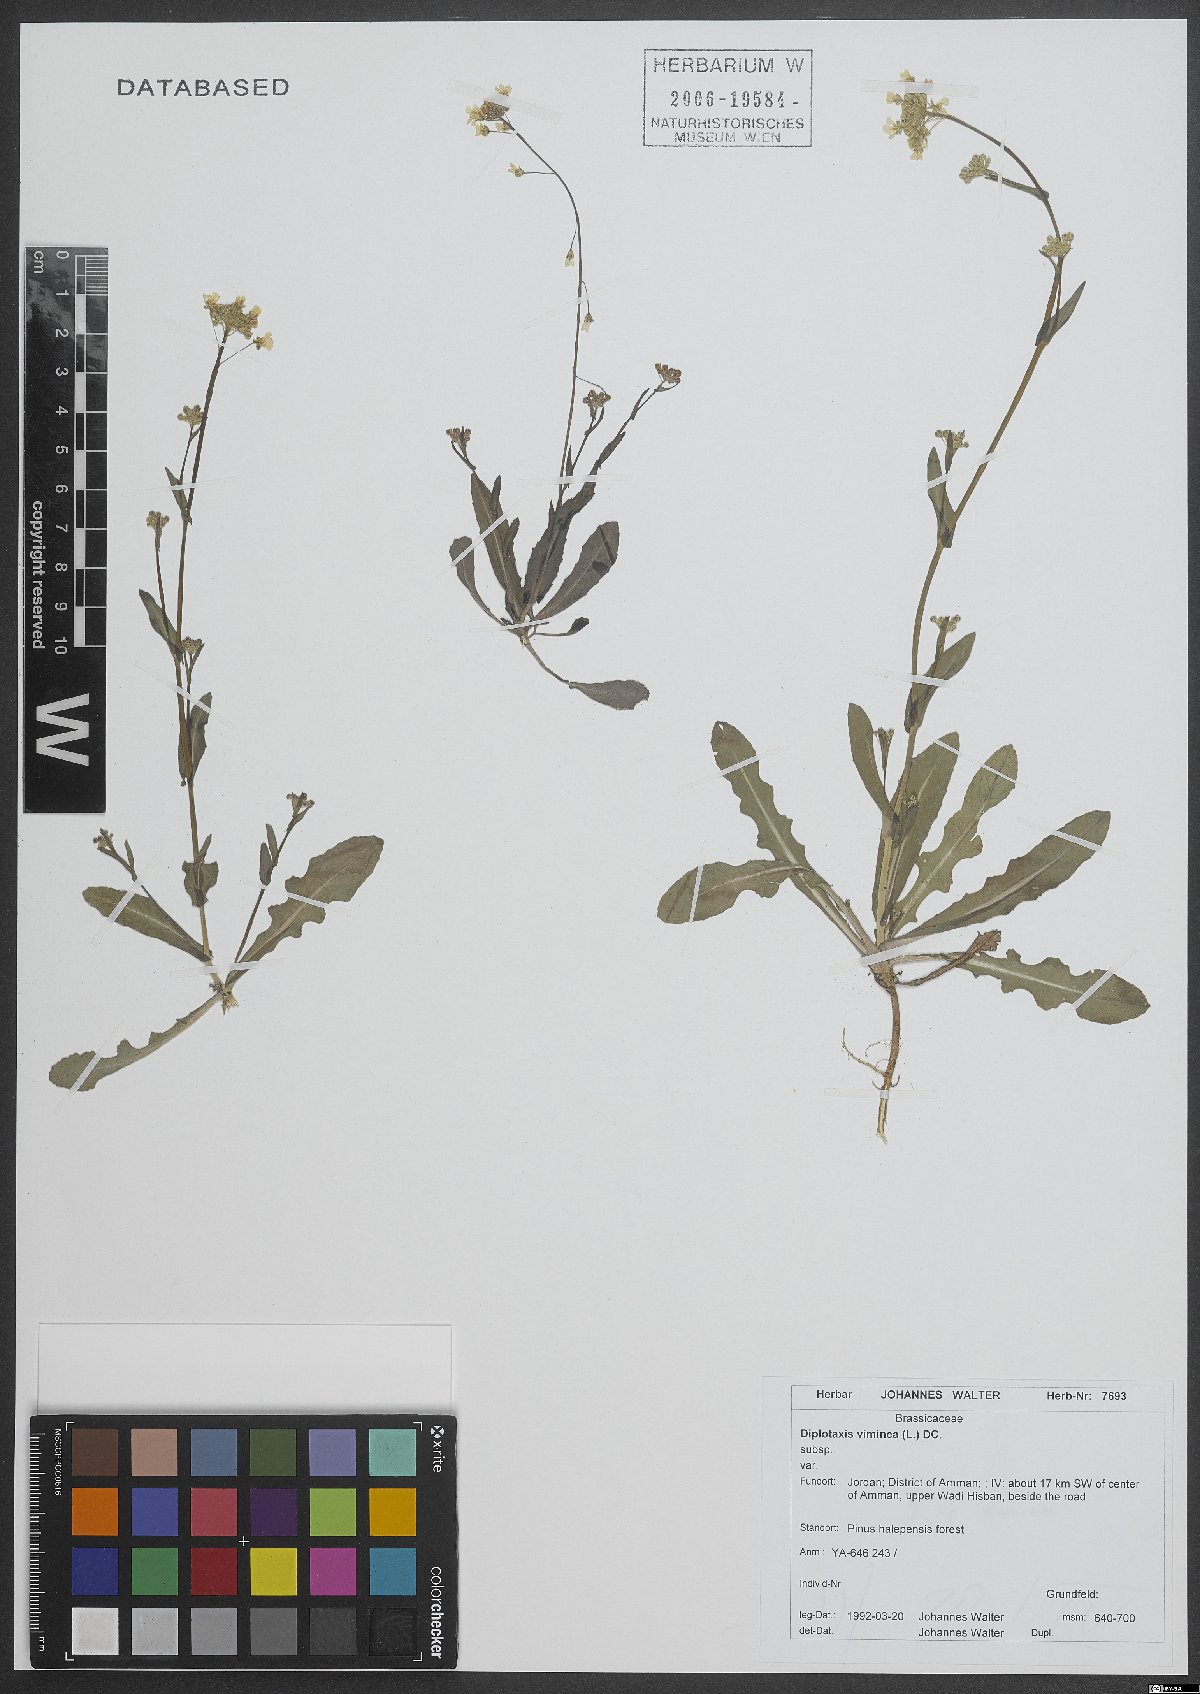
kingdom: Plantae
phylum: Tracheophyta
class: Magnoliopsida
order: Brassicales
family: Brassicaceae
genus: Diplotaxis
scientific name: Diplotaxis viminea
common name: Vineyard wall rocket
